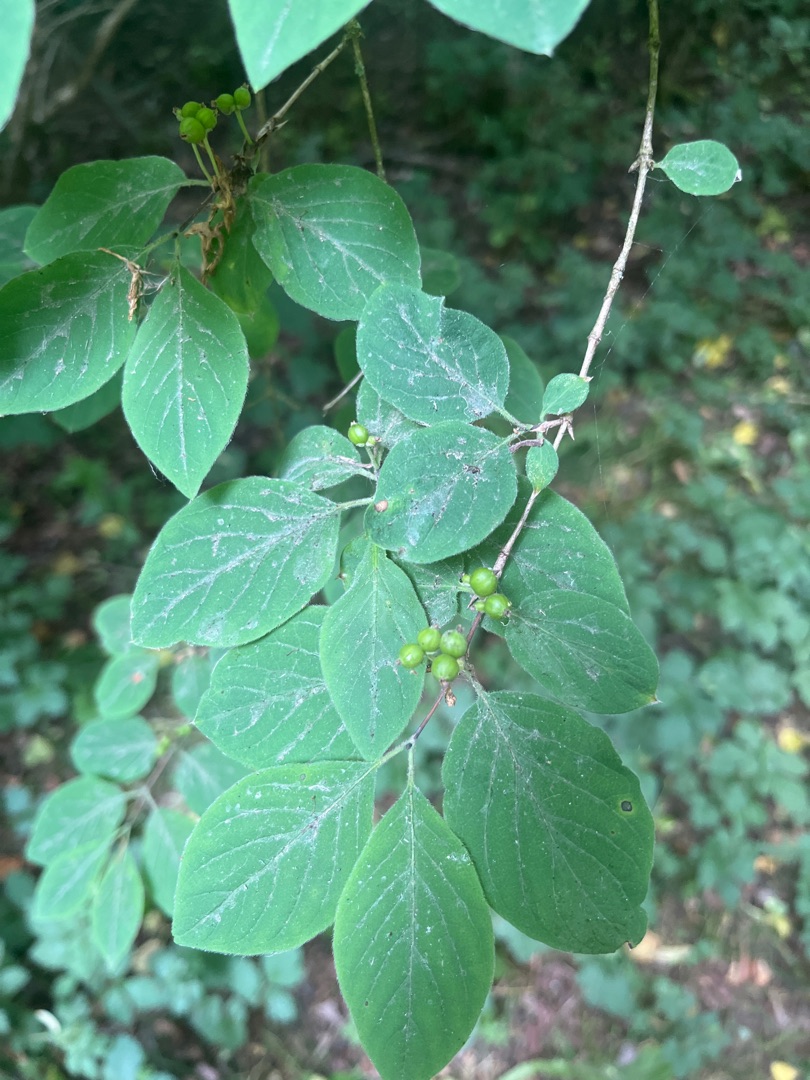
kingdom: Plantae
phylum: Tracheophyta
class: Magnoliopsida
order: Dipsacales
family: Caprifoliaceae
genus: Lonicera
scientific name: Lonicera xylosteum
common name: Dunet gedeblad
